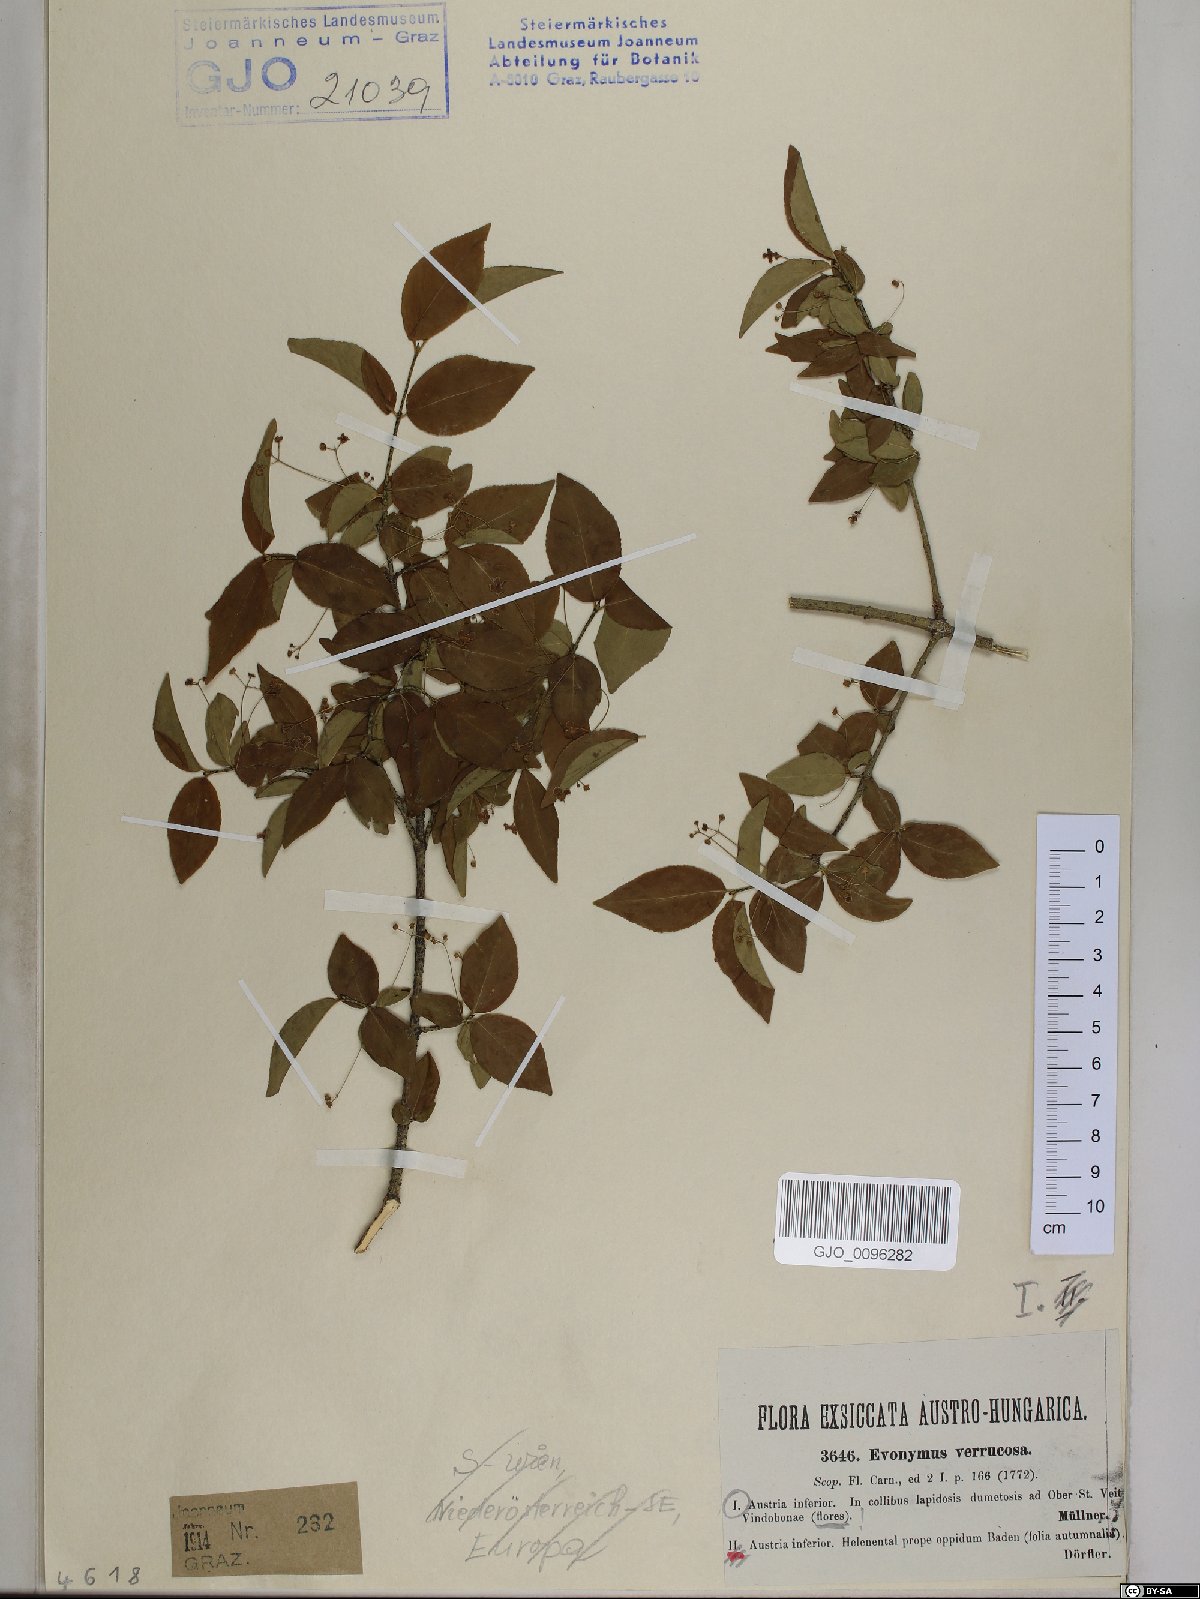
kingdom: Plantae
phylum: Tracheophyta
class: Magnoliopsida
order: Celastrales
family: Celastraceae
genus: Euonymus
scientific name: Euonymus verrucosus
